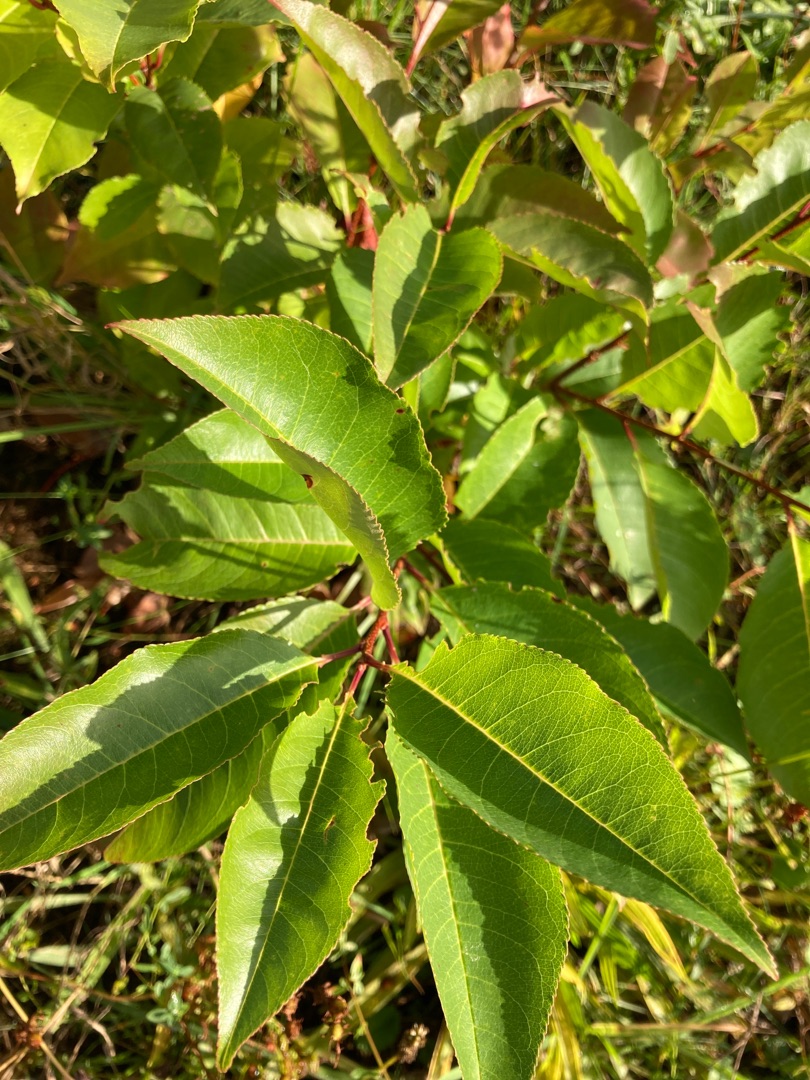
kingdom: Plantae
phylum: Tracheophyta
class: Magnoliopsida
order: Rosales
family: Rosaceae
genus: Prunus
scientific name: Prunus serotina
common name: Glansbladet hæg
